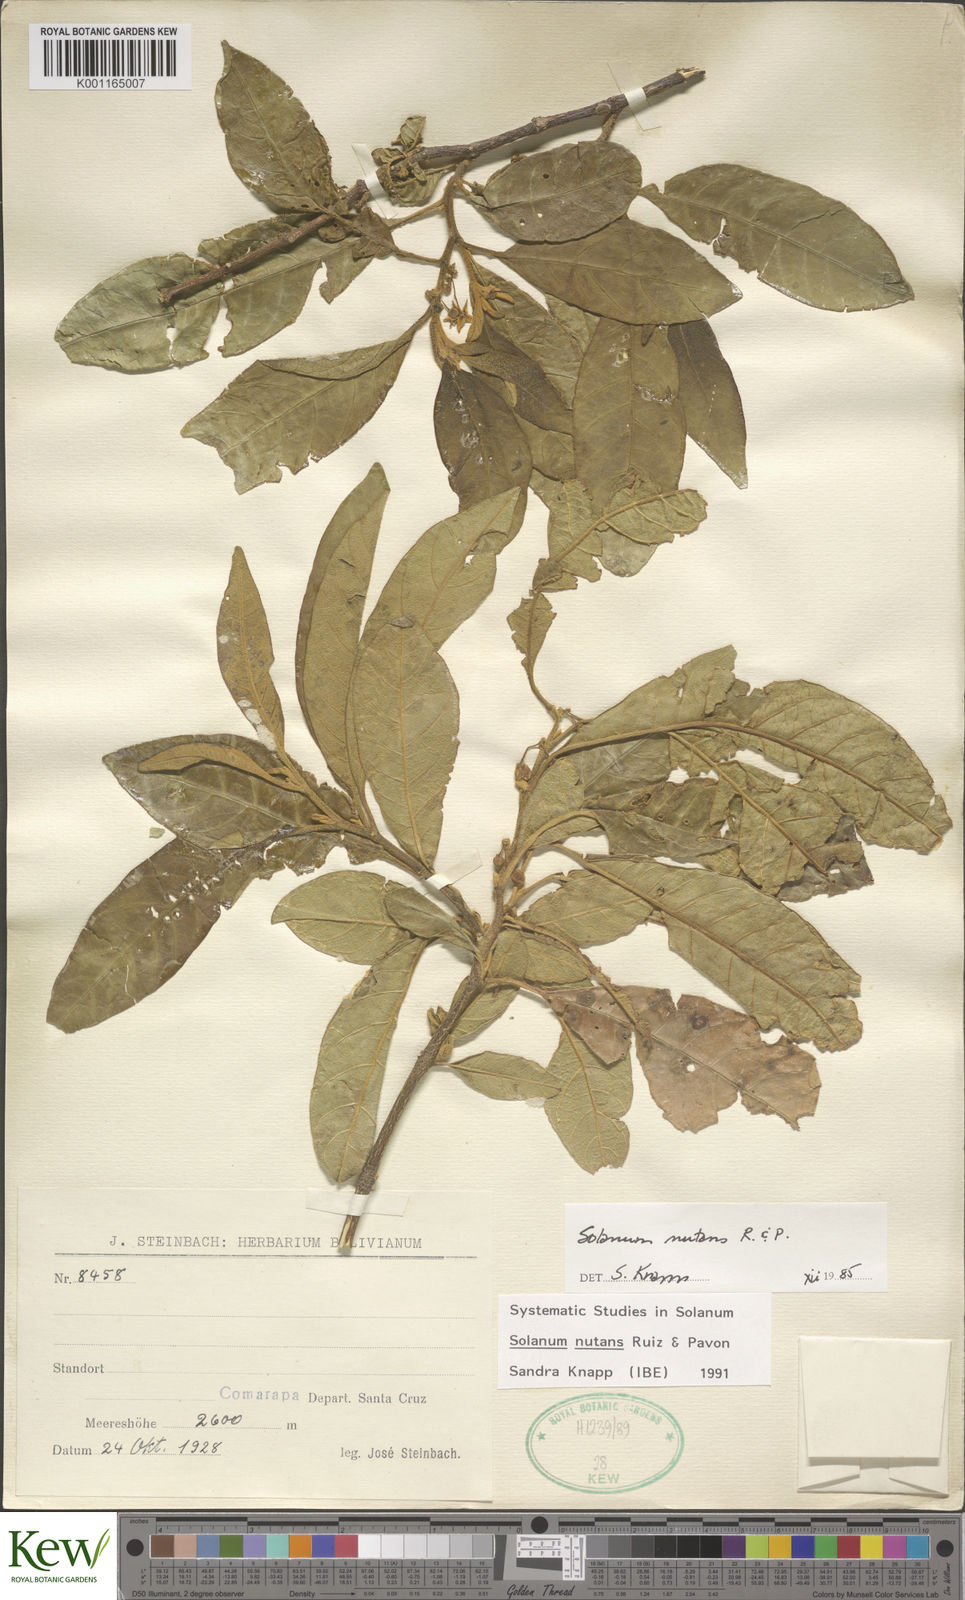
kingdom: Plantae
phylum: Tracheophyta
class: Magnoliopsida
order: Solanales
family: Solanaceae
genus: Solanum
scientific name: Solanum nutans
